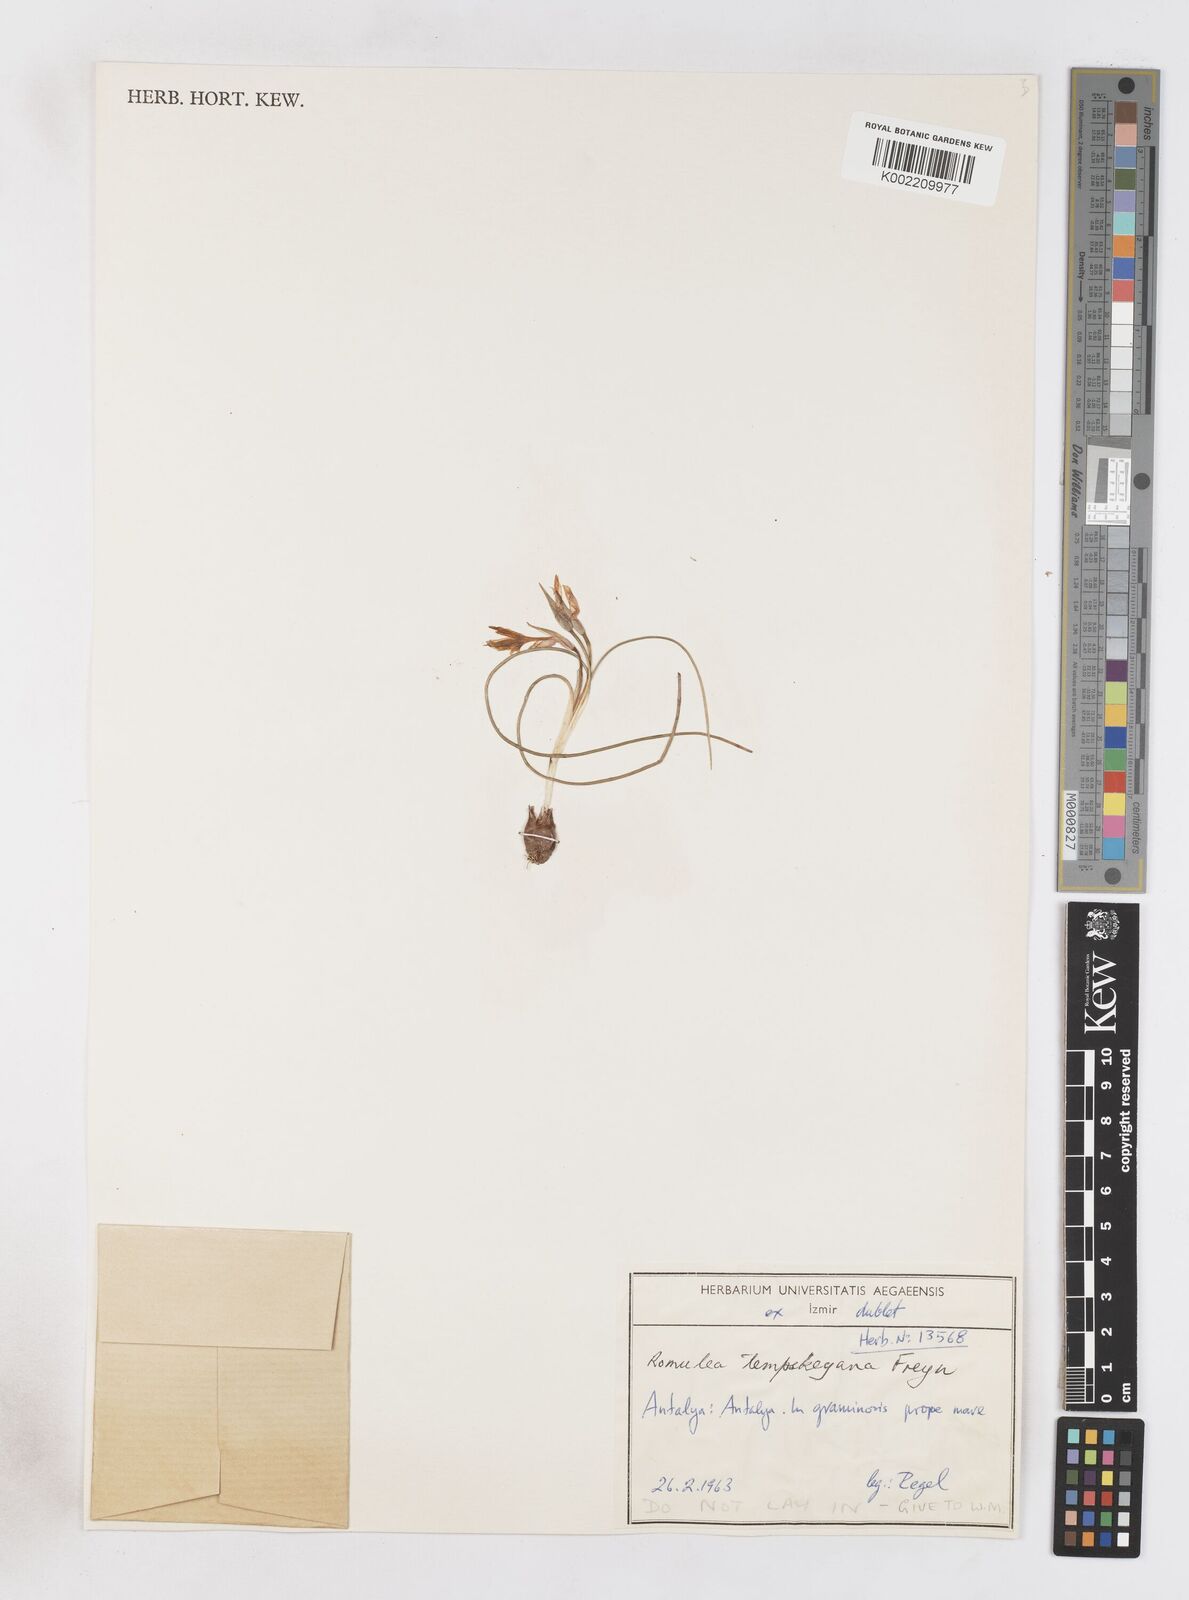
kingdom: Plantae
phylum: Tracheophyta
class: Liliopsida
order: Asparagales
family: Iridaceae
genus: Romulea
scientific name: Romulea tempskyana
